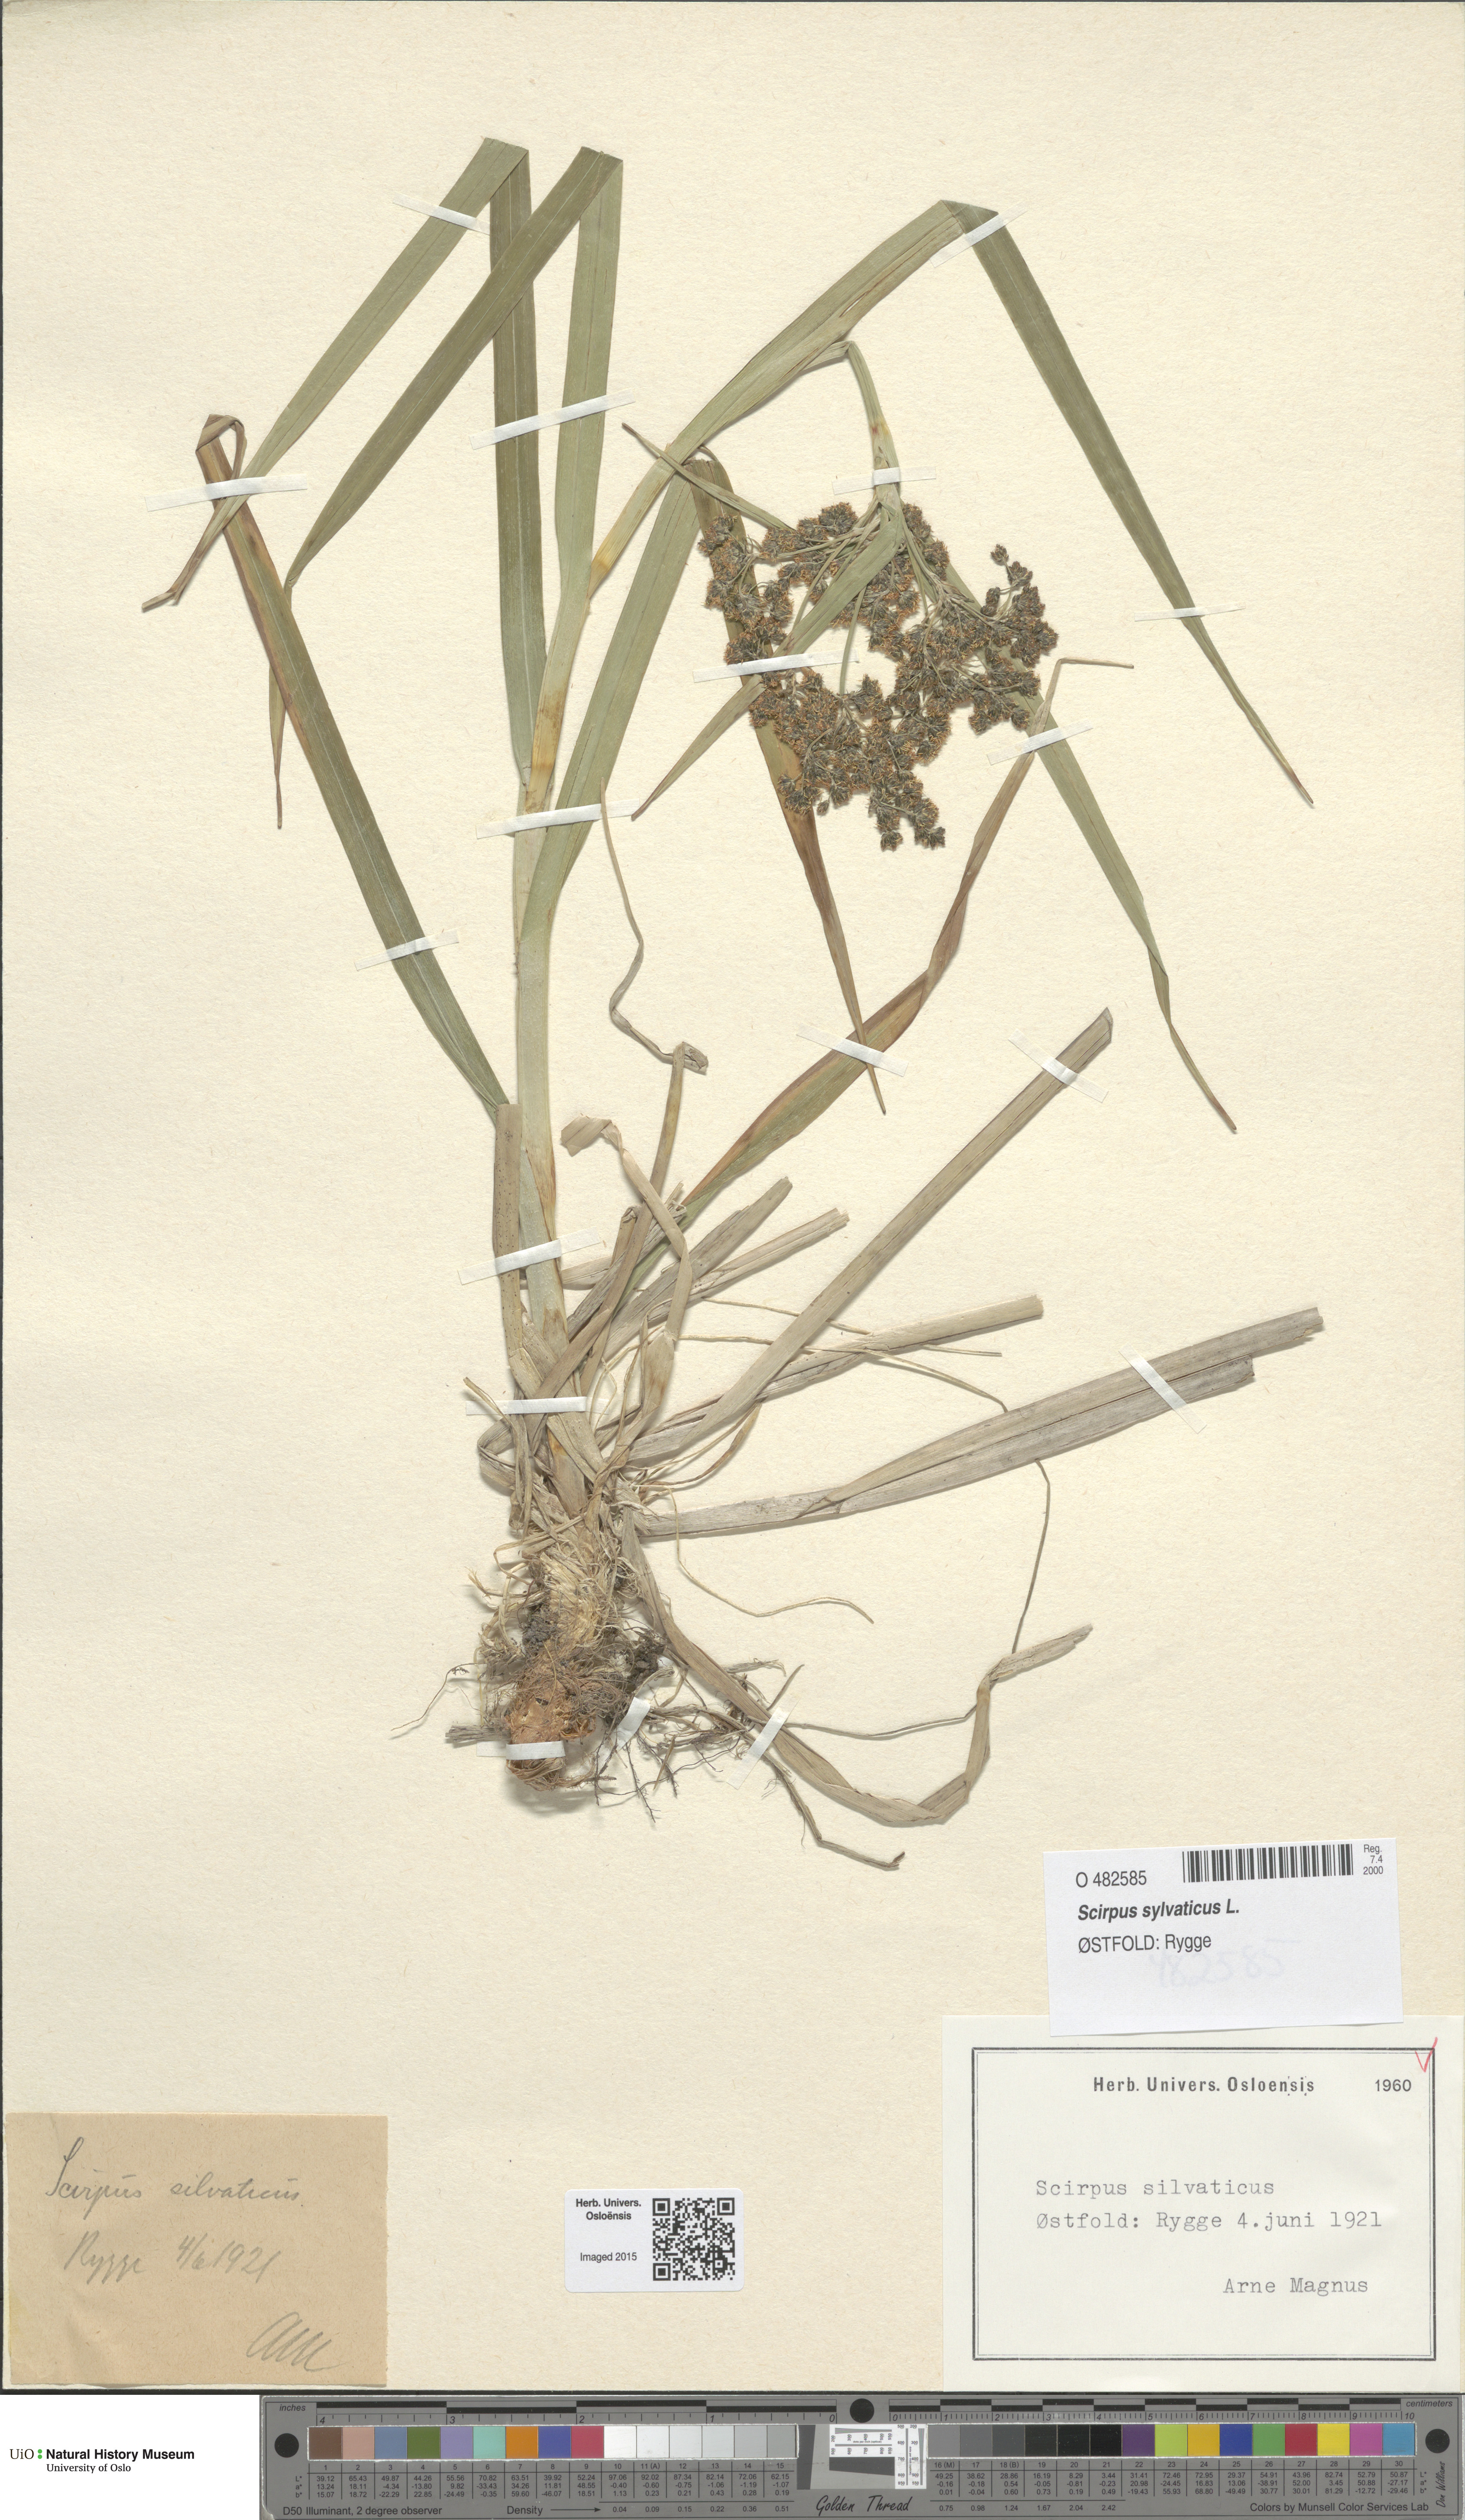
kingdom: Plantae
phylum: Tracheophyta
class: Liliopsida
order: Poales
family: Cyperaceae
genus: Scirpus
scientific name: Scirpus sylvaticus
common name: Wood club-rush
